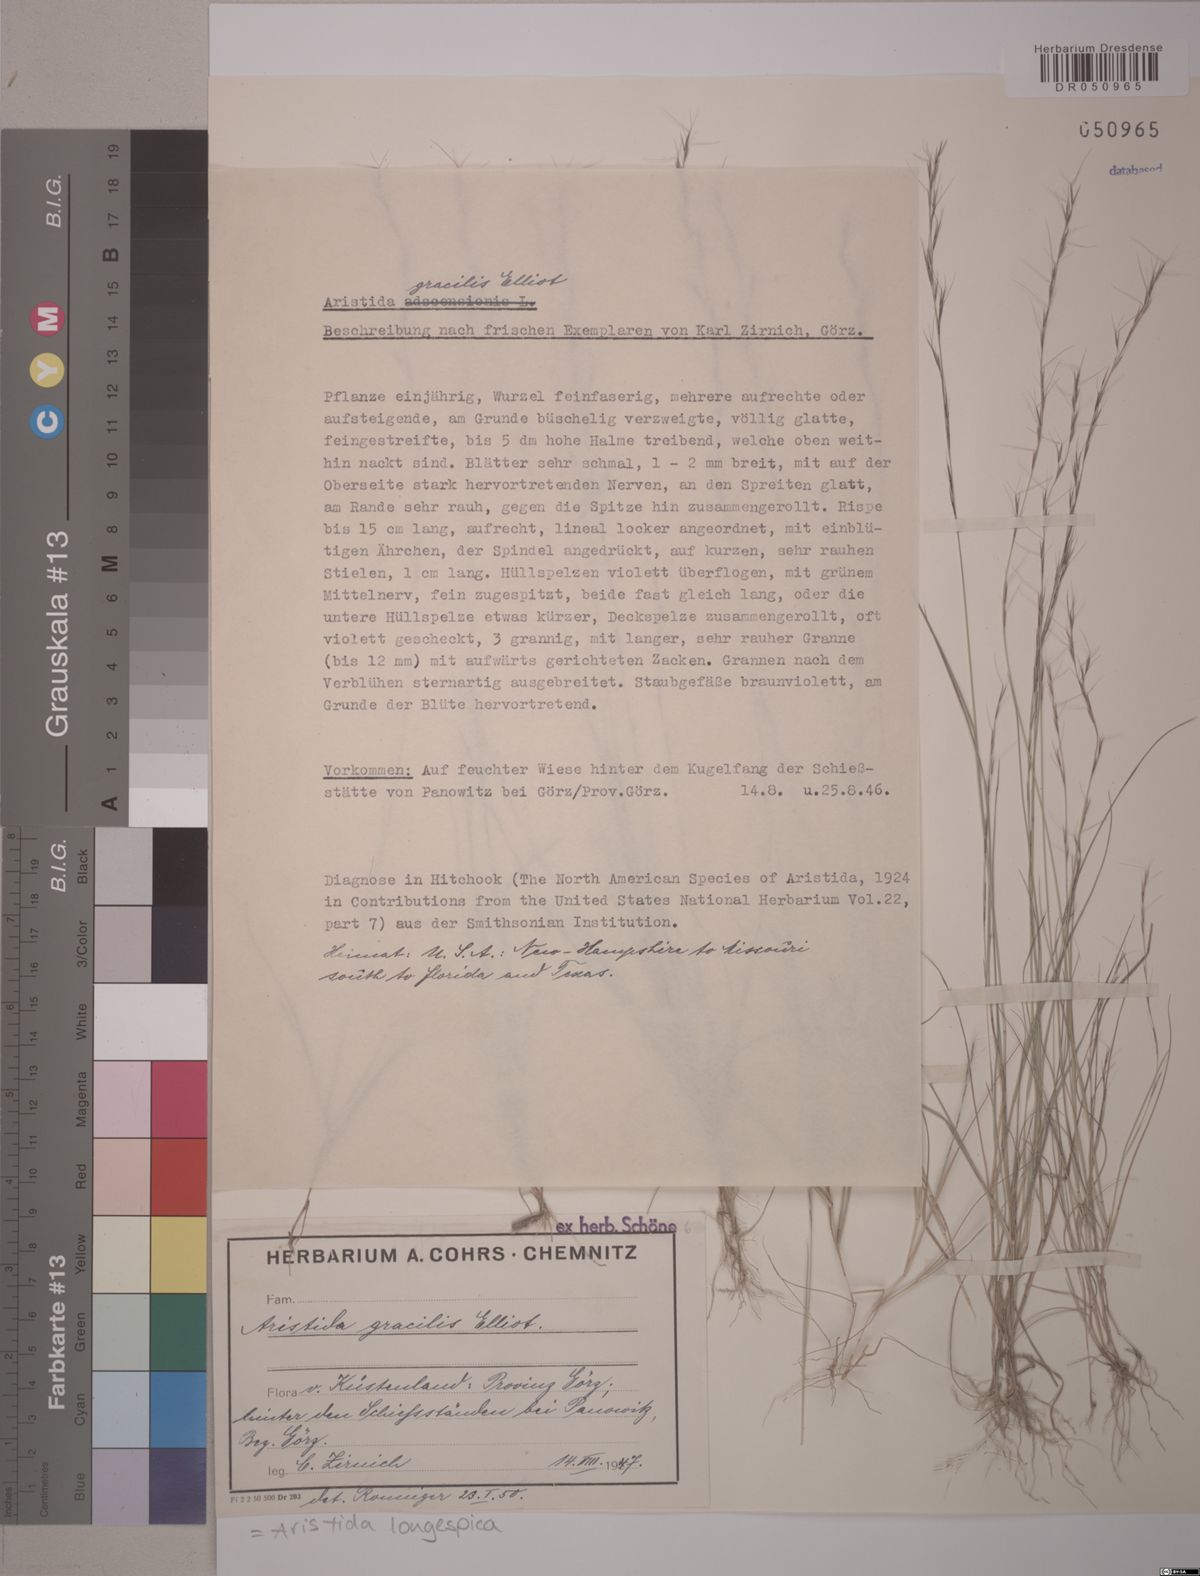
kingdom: Plantae
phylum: Tracheophyta
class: Liliopsida
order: Poales
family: Poaceae
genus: Aristida
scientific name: Aristida longespica
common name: Long-spiked triple-awned grass
